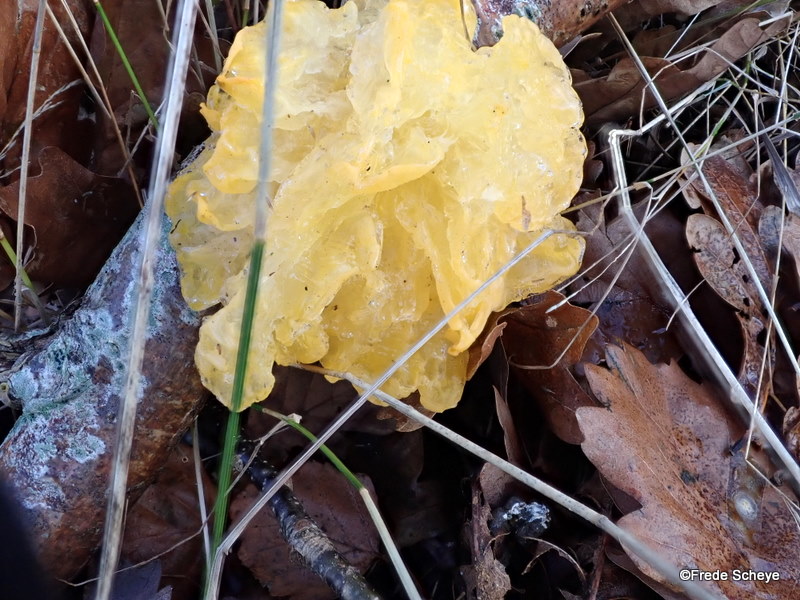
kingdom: Fungi
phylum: Basidiomycota
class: Tremellomycetes
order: Tremellales
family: Tremellaceae
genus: Tremella
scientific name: Tremella mesenterica
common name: gul bævresvamp
